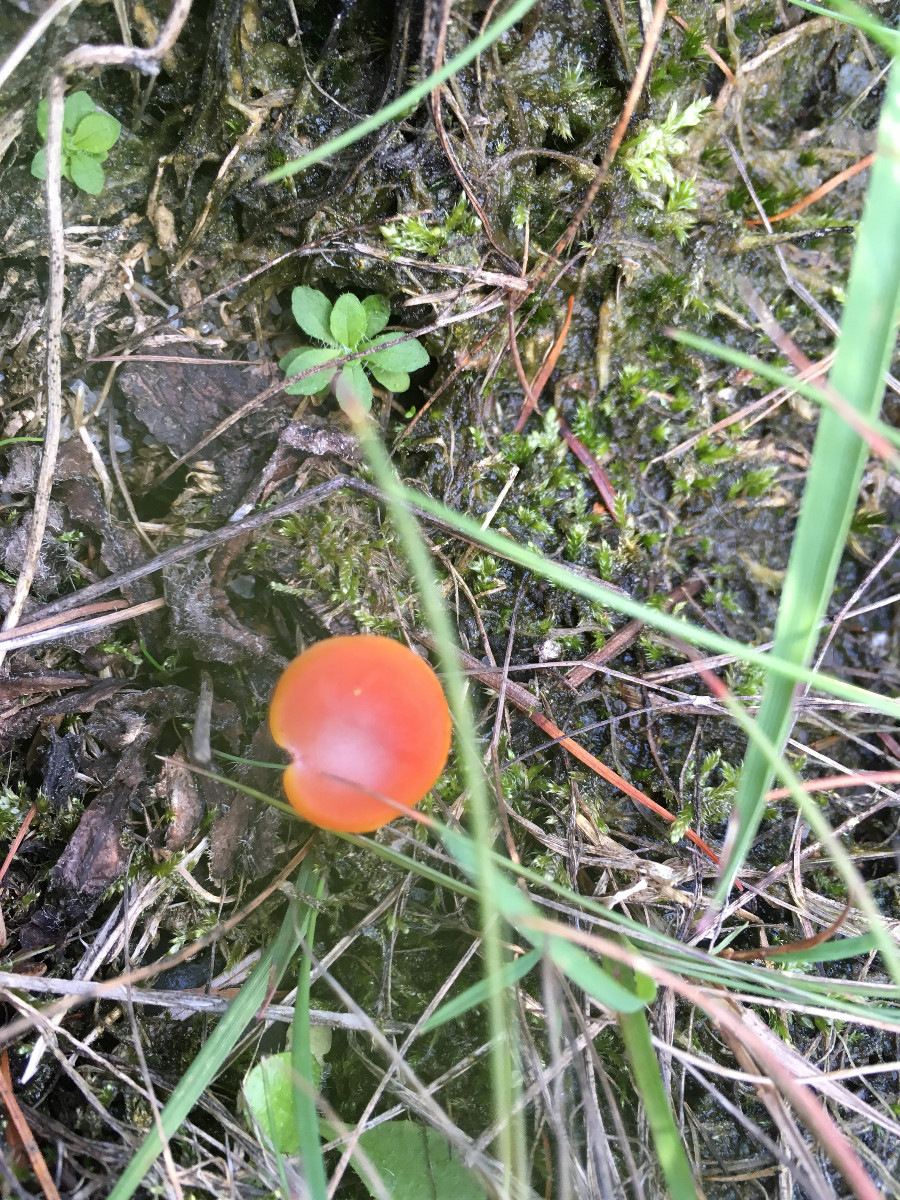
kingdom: Fungi
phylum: Basidiomycota
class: Agaricomycetes
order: Agaricales
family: Hygrophoraceae
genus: Hygrocybe
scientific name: Hygrocybe
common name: vokshat
